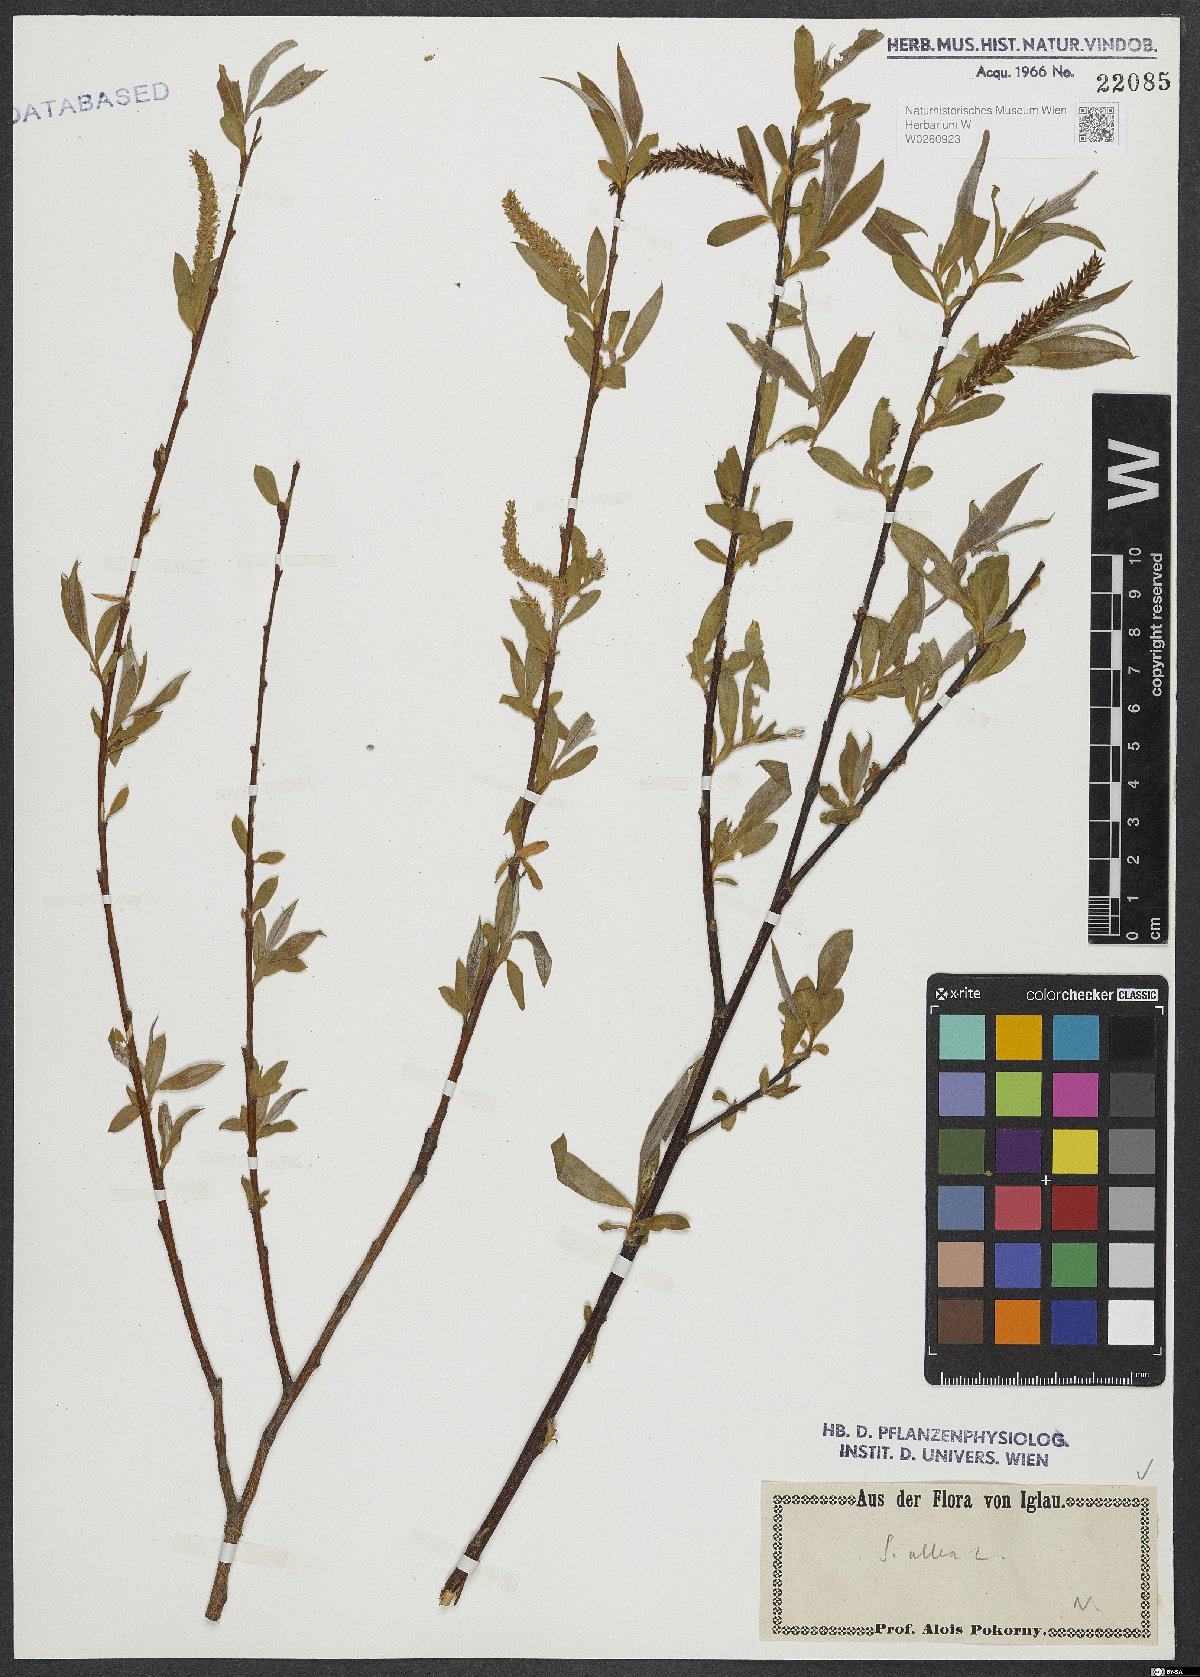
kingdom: Plantae
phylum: Tracheophyta
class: Magnoliopsida
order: Malpighiales
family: Salicaceae
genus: Salix
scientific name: Salix alba
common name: White willow
